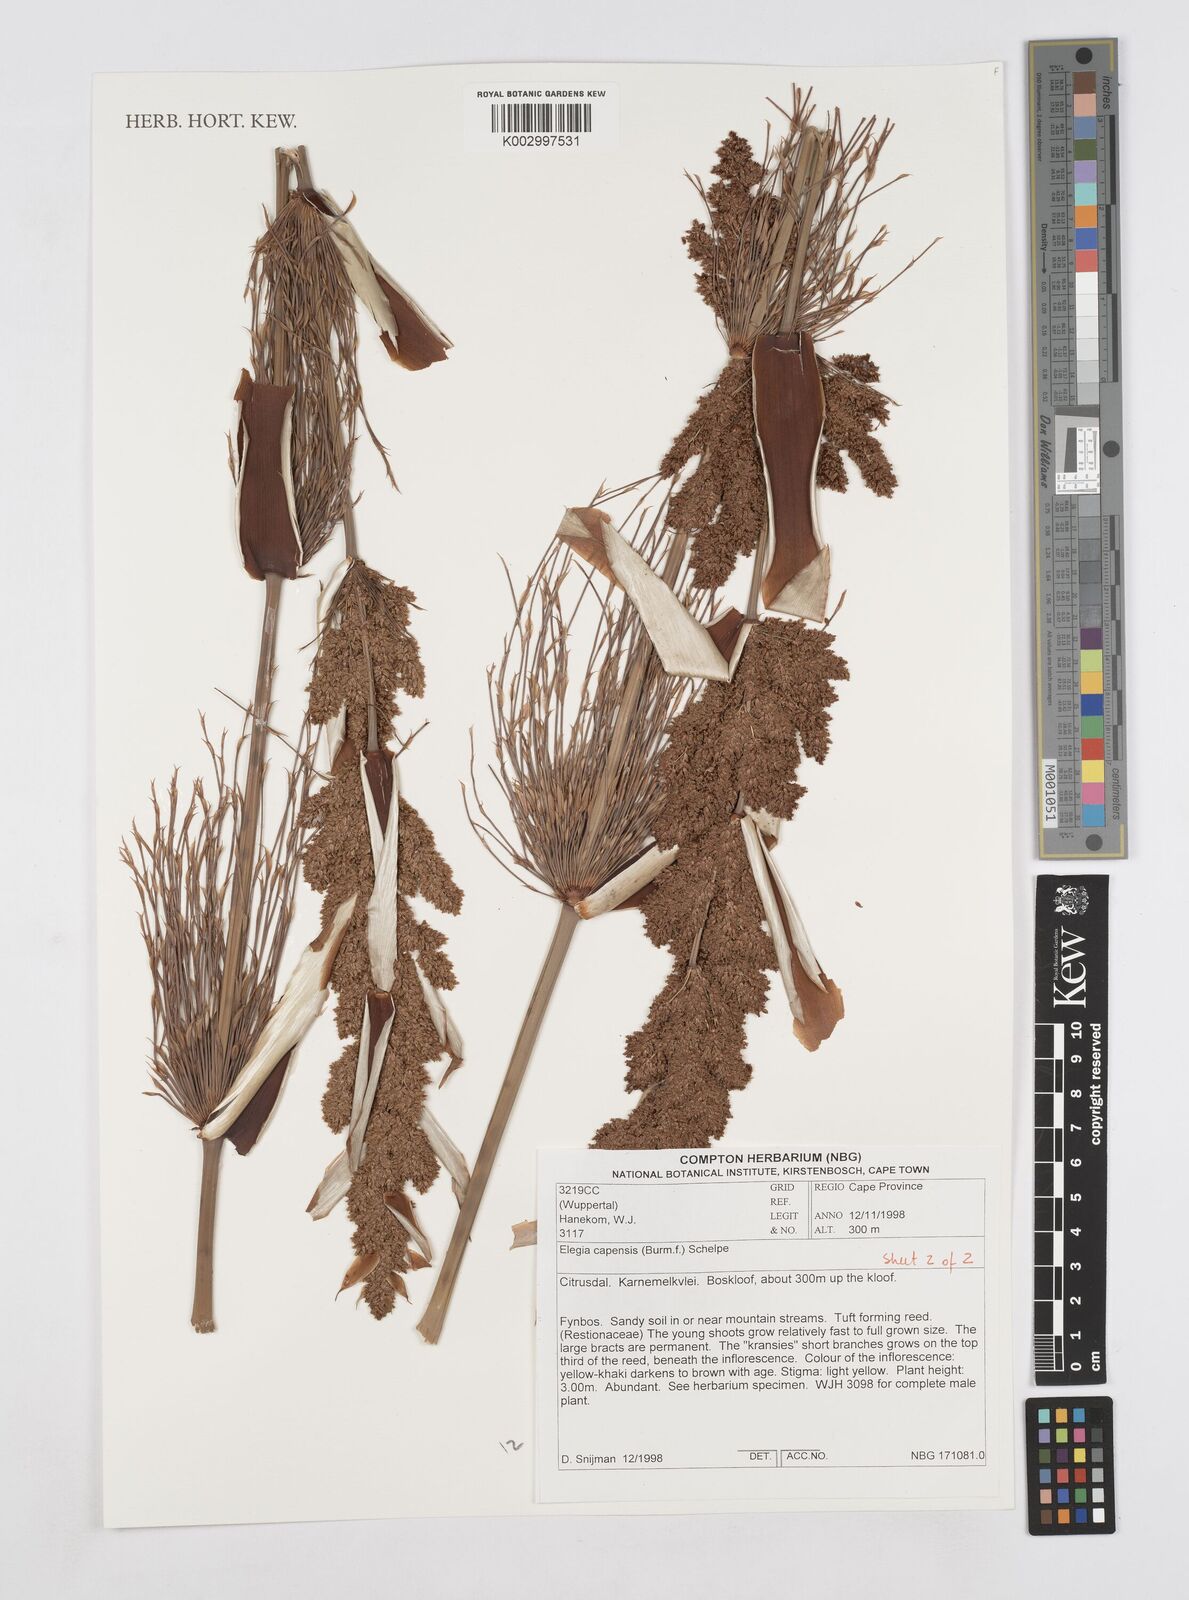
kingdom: Plantae
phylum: Tracheophyta
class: Liliopsida
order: Poales
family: Restionaceae
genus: Elegia
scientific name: Elegia capensis
